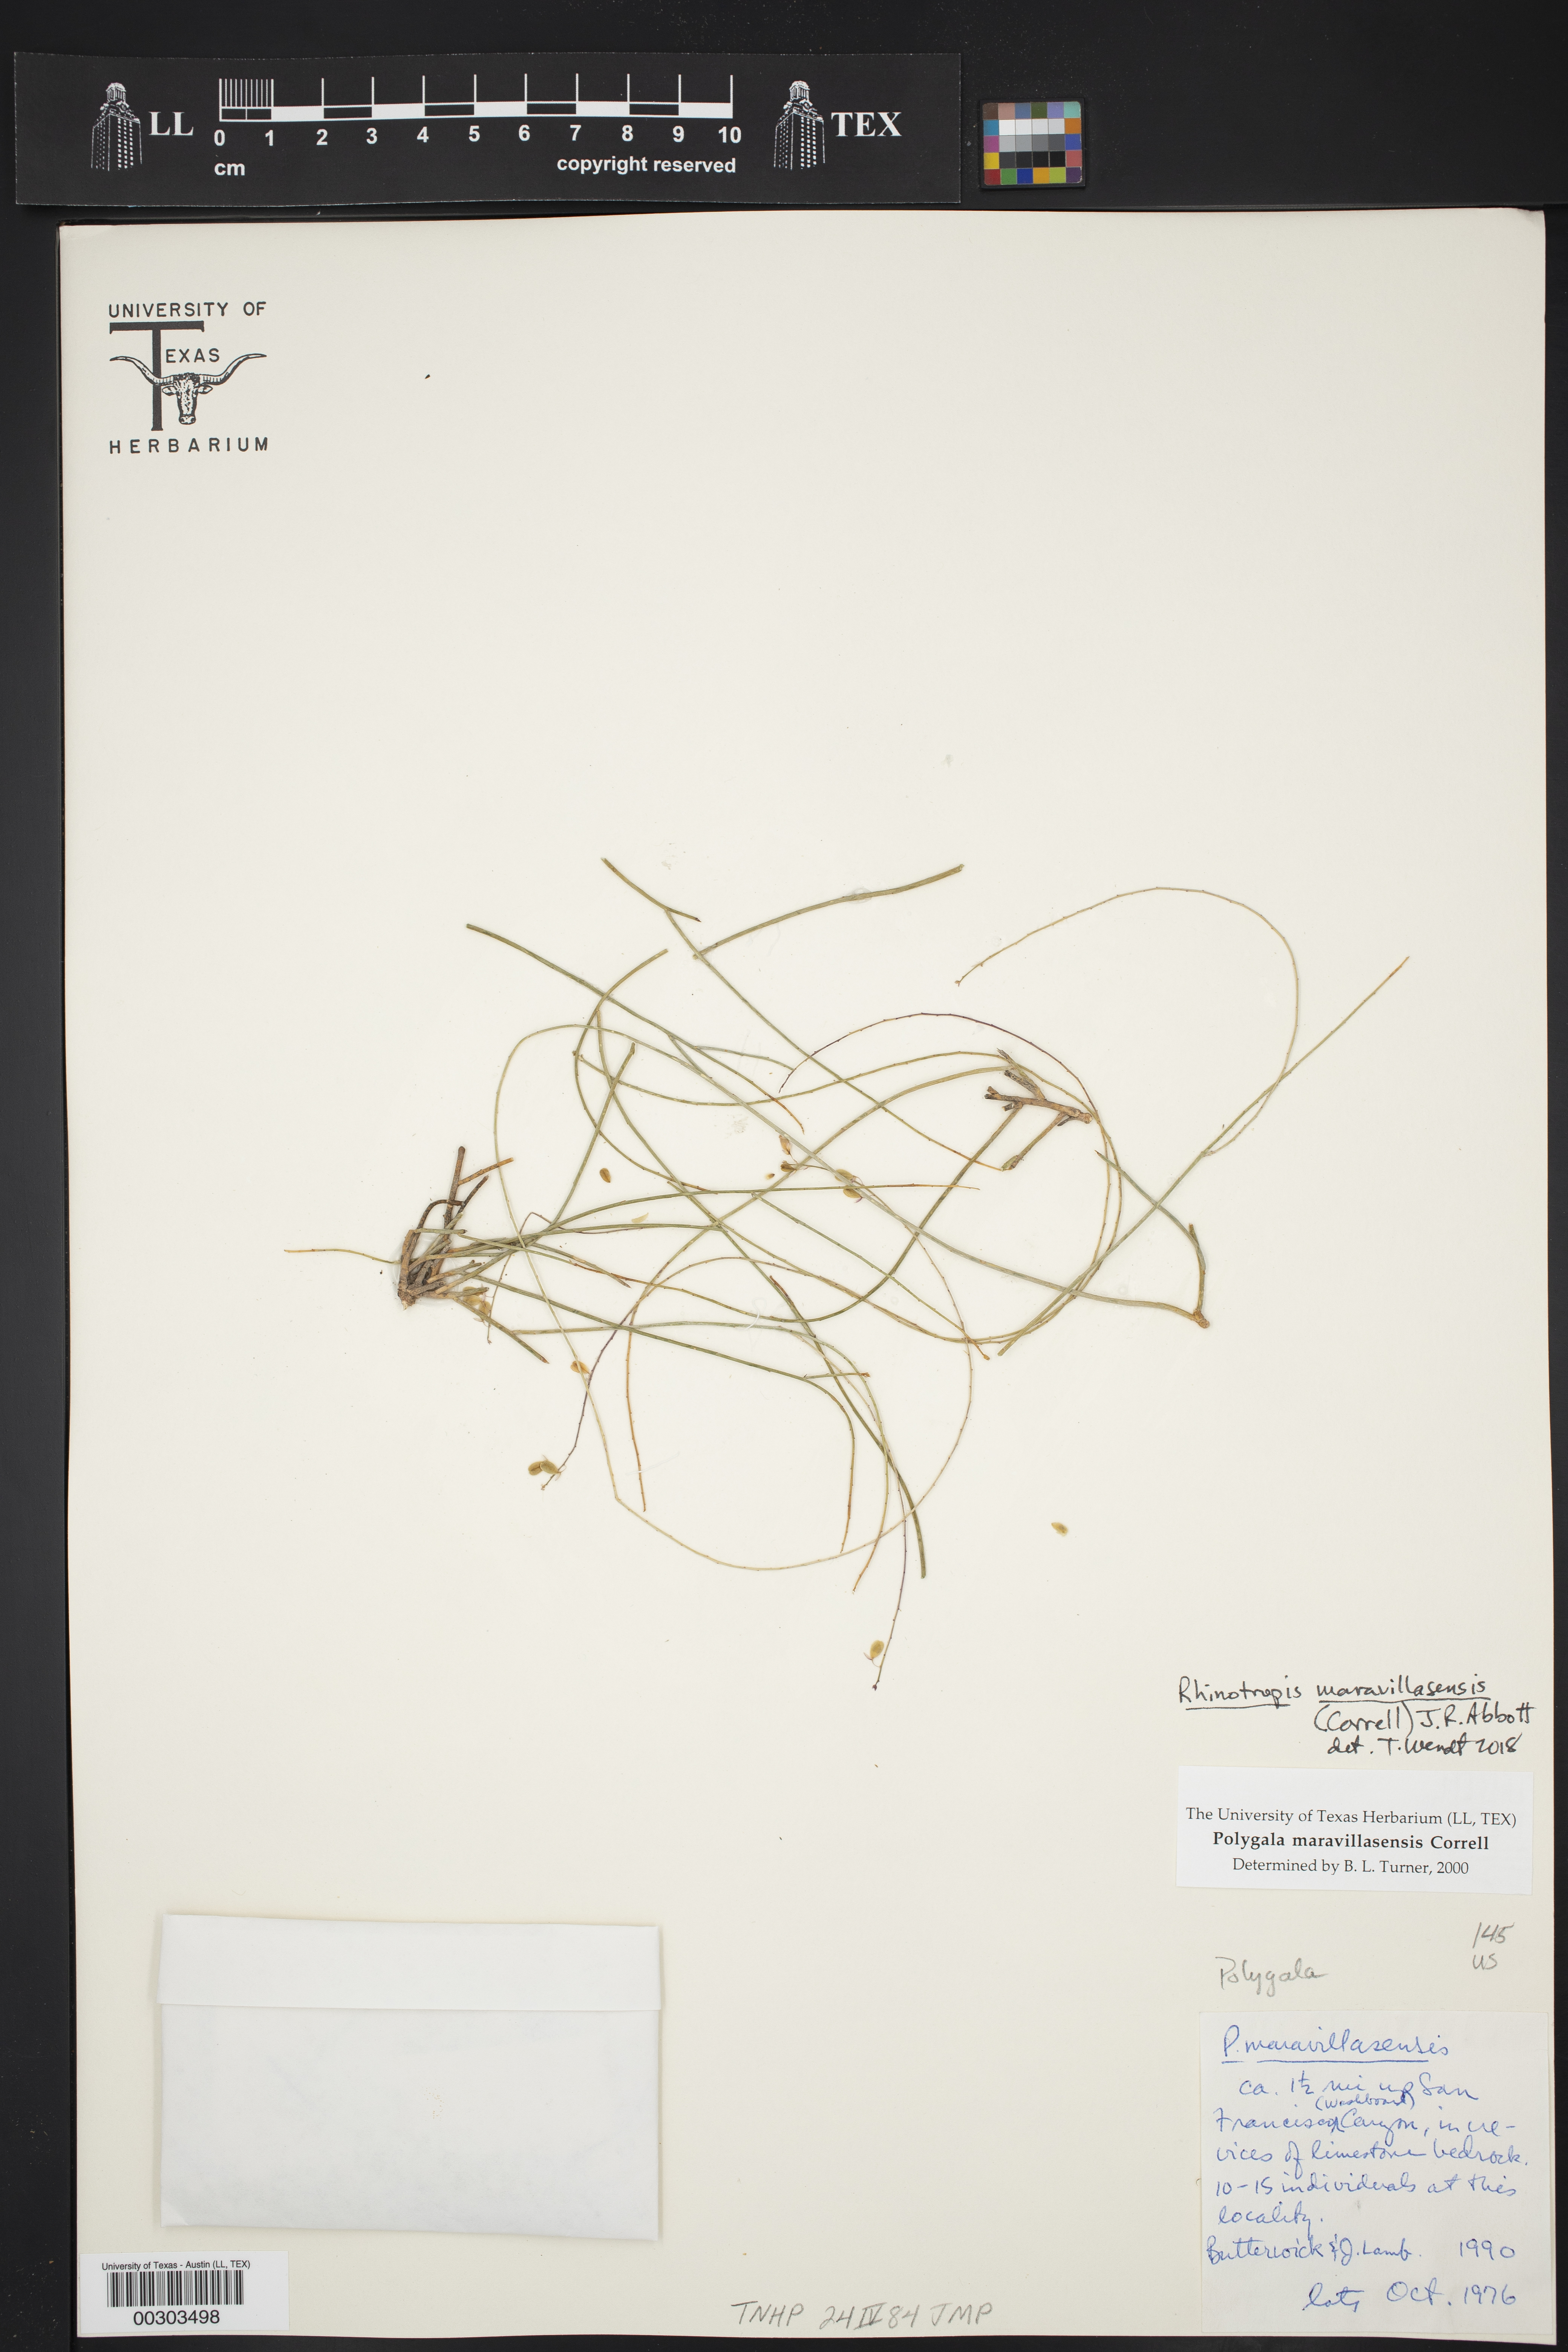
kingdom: Plantae
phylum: Tracheophyta
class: Magnoliopsida
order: Fabales
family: Polygalaceae
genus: Rhinotropis
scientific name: Rhinotropis maravillasensis
